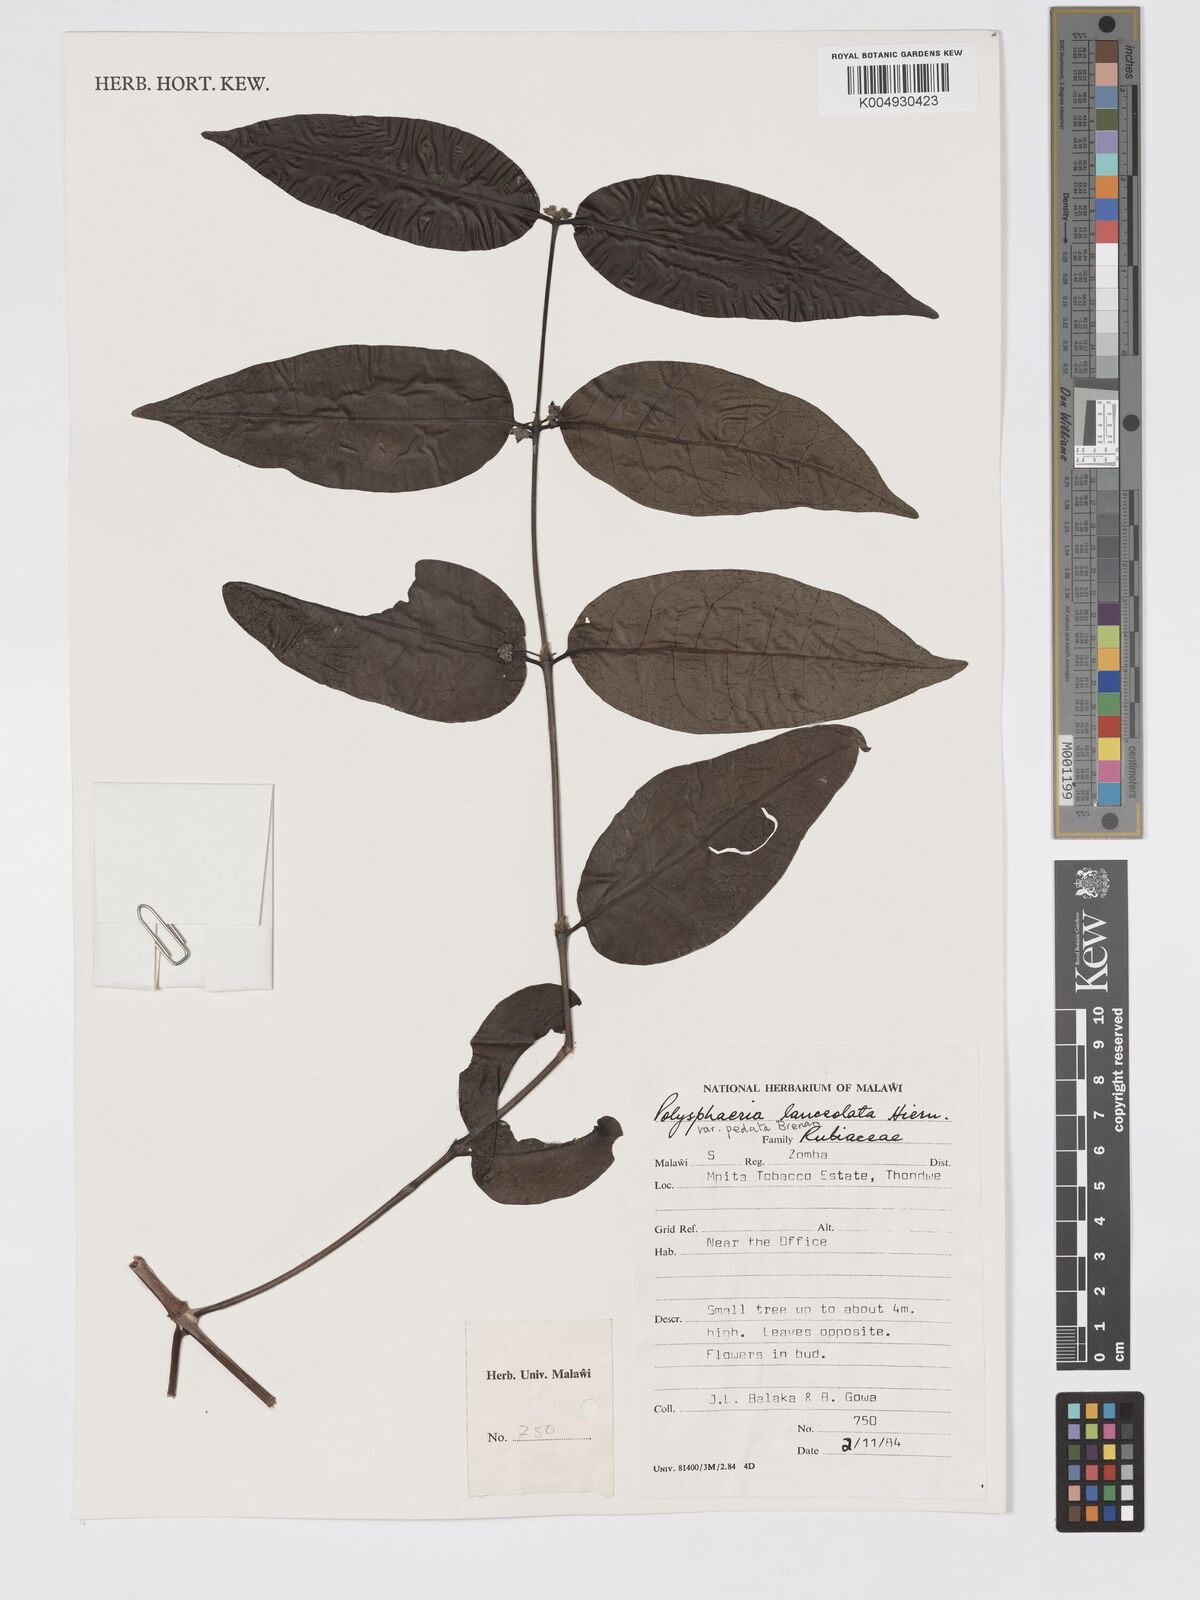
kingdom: Plantae
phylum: Tracheophyta
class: Magnoliopsida
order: Gentianales
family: Rubiaceae
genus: Polysphaeria
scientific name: Polysphaeria lanceolata
